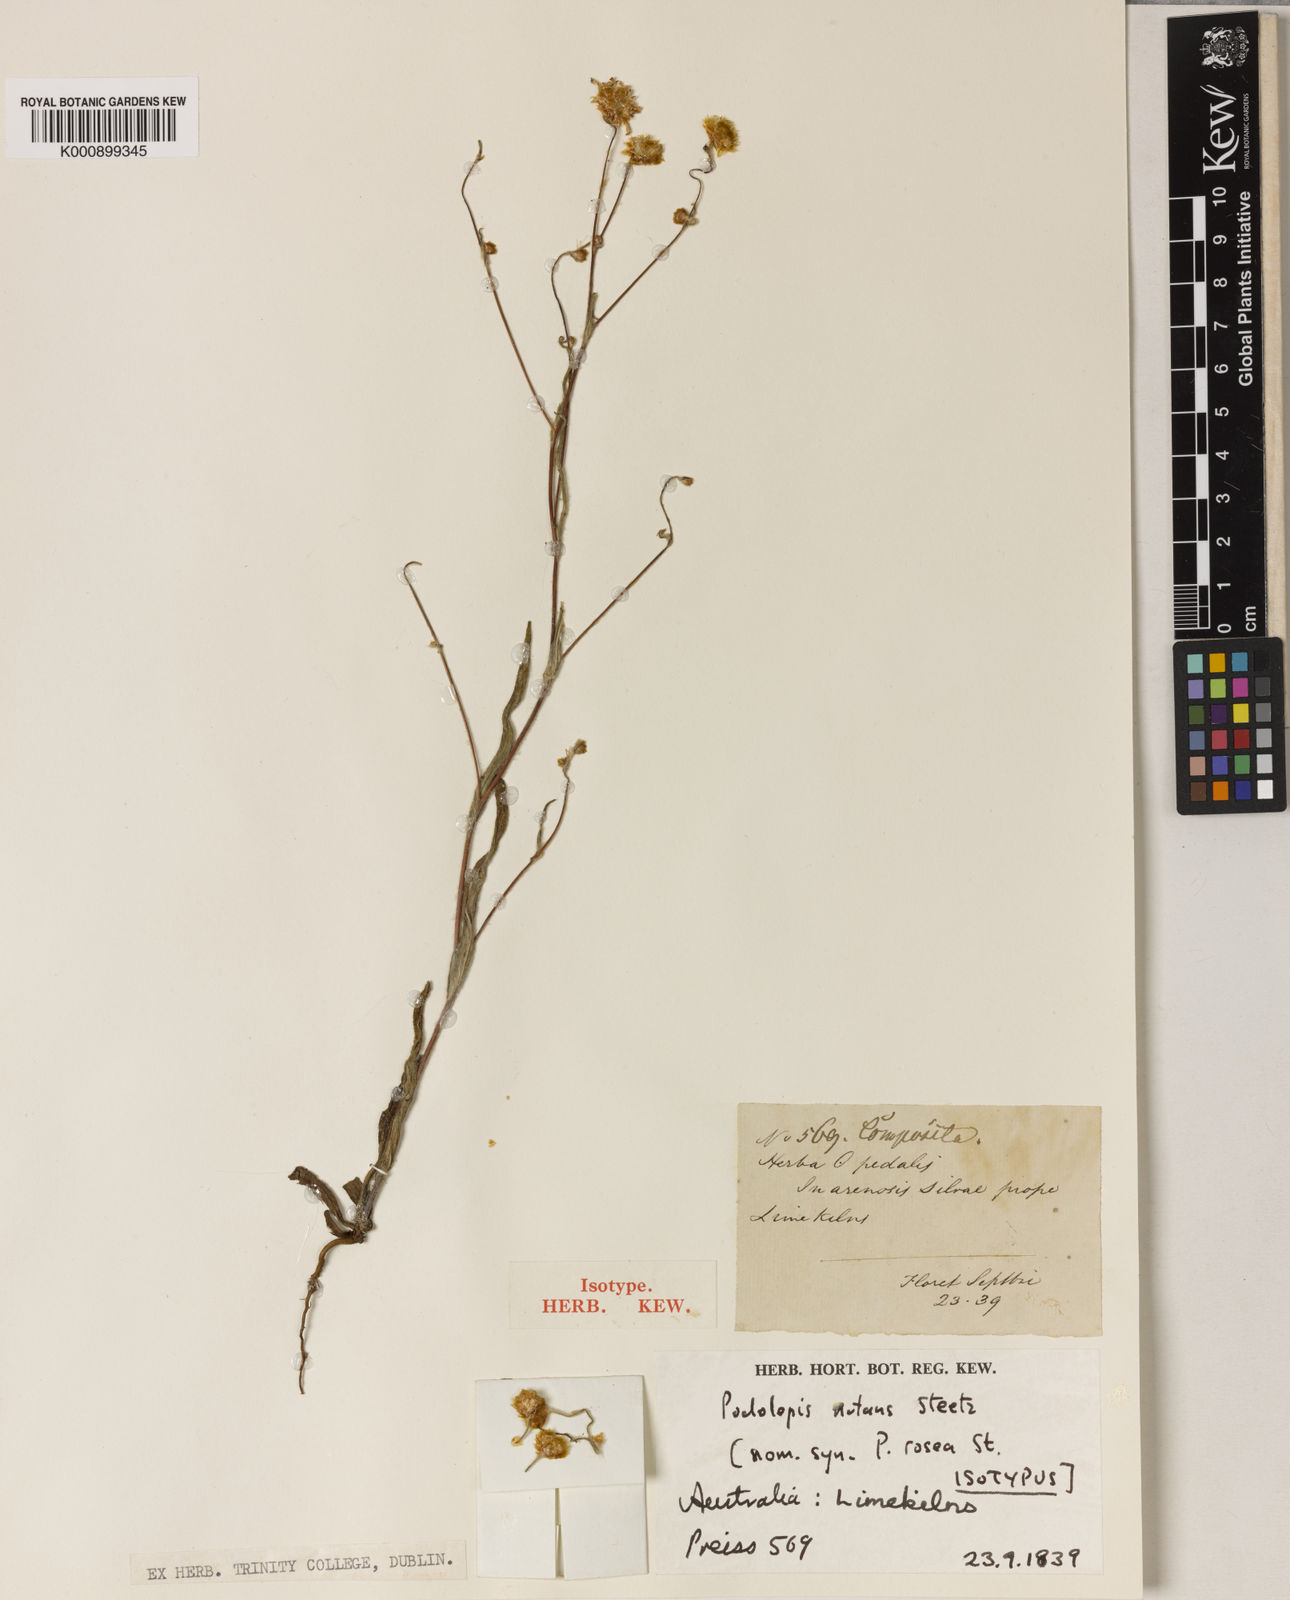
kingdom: Plantae
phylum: Tracheophyta
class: Magnoliopsida
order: Asterales
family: Asteraceae
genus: Podolepis
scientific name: Podolepis nutans
